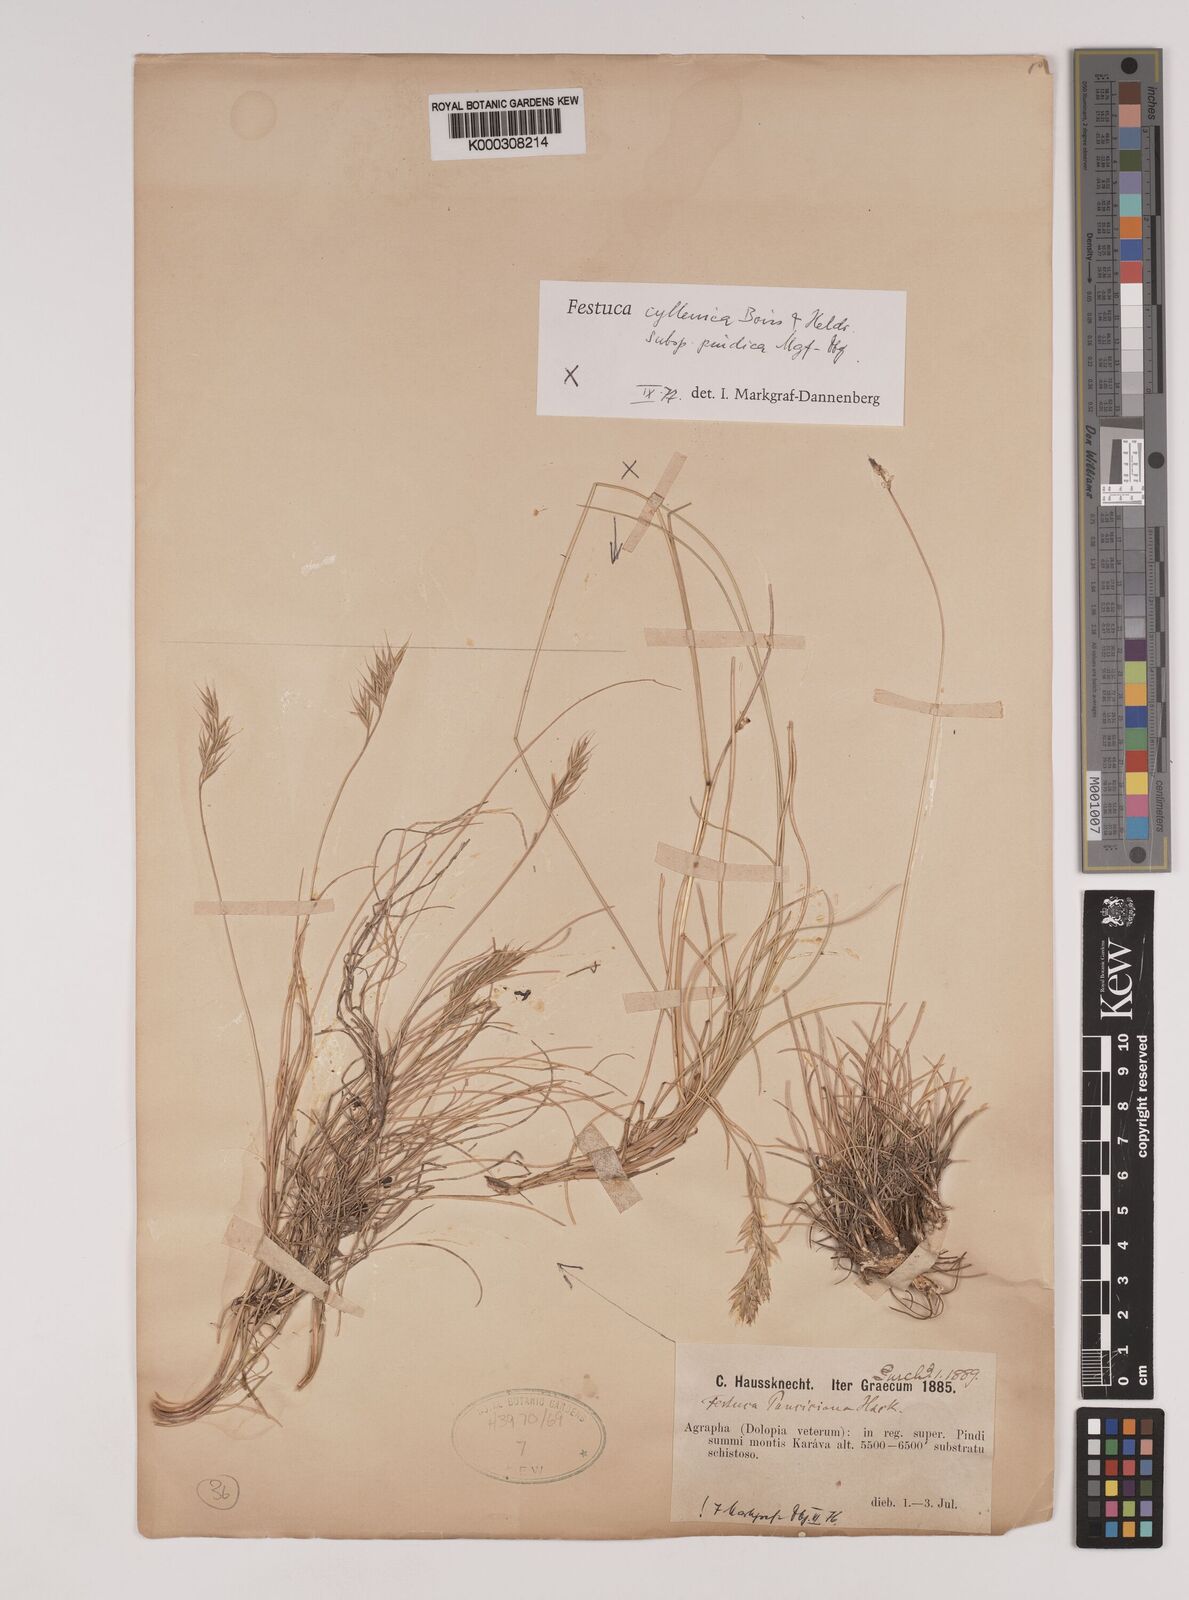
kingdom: Plantae
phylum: Tracheophyta
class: Liliopsida
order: Poales
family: Poaceae
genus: Festuca
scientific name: Festuca pindica
